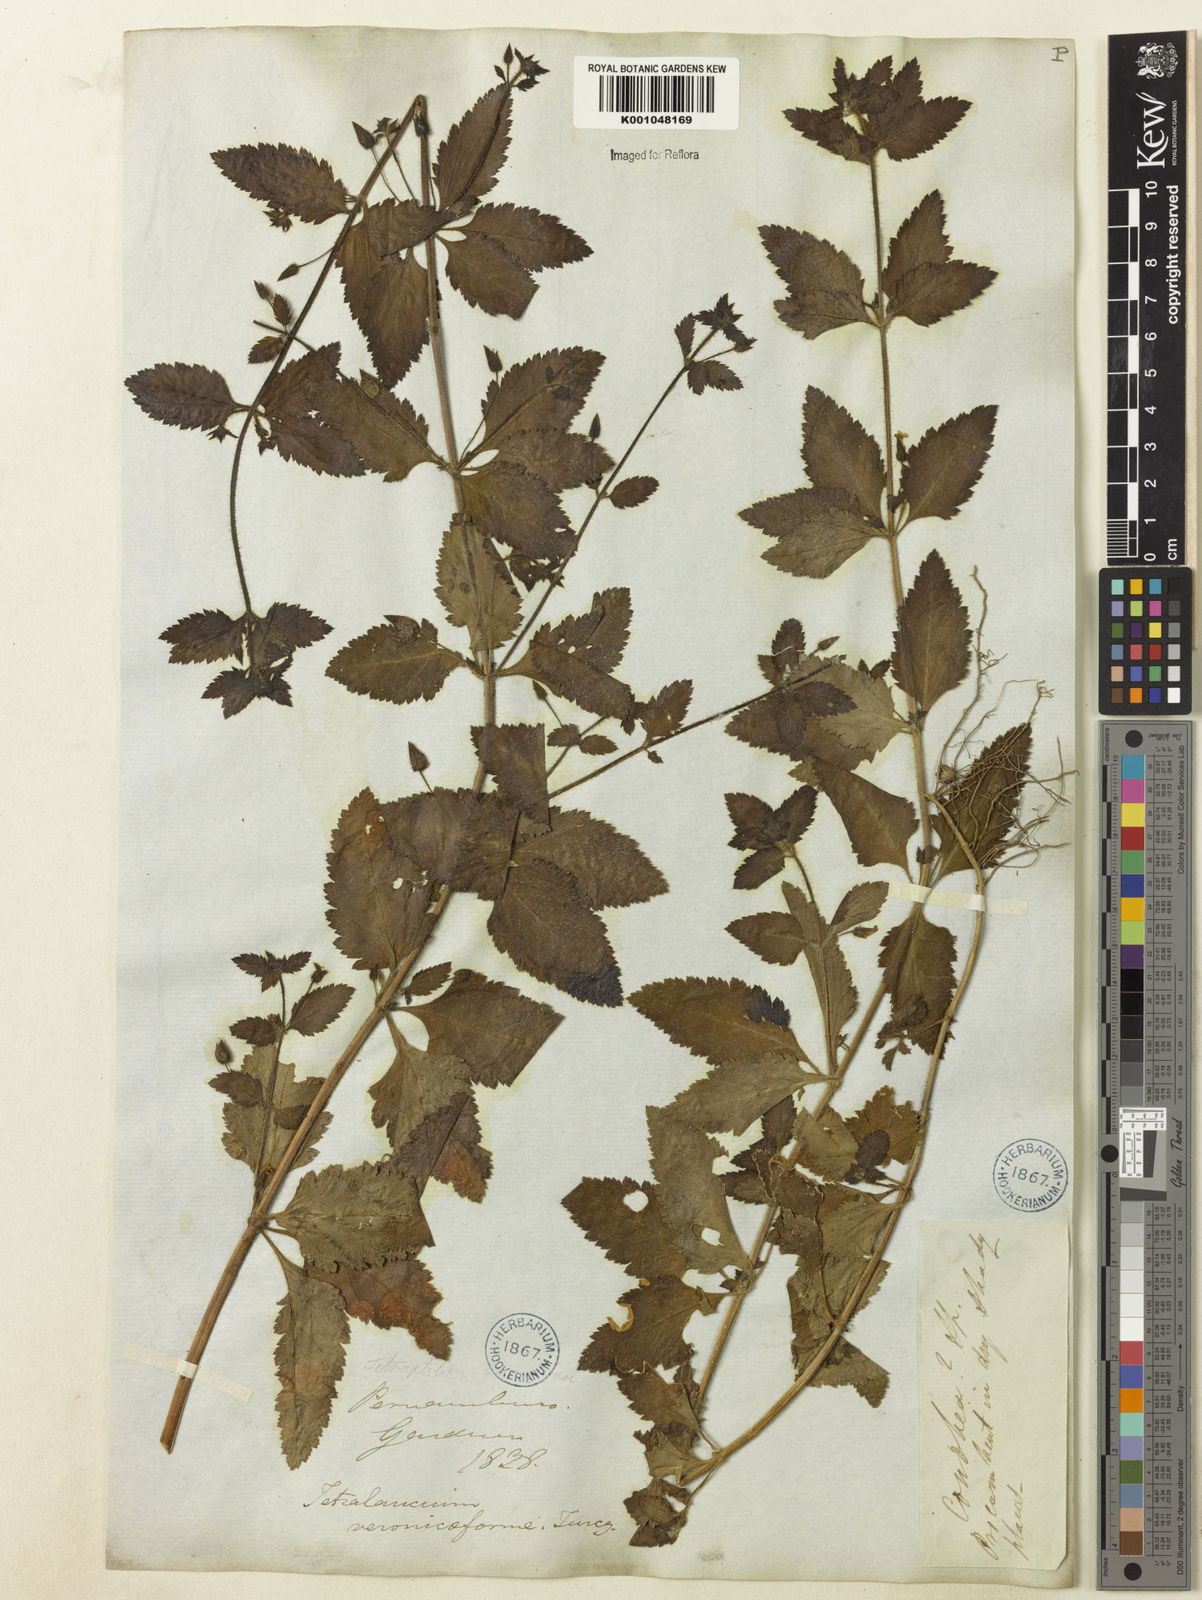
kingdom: Plantae
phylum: Tracheophyta
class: Magnoliopsida
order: Lamiales
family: Plantaginaceae
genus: Tetraulacium
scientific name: Tetraulacium veroniciforme
